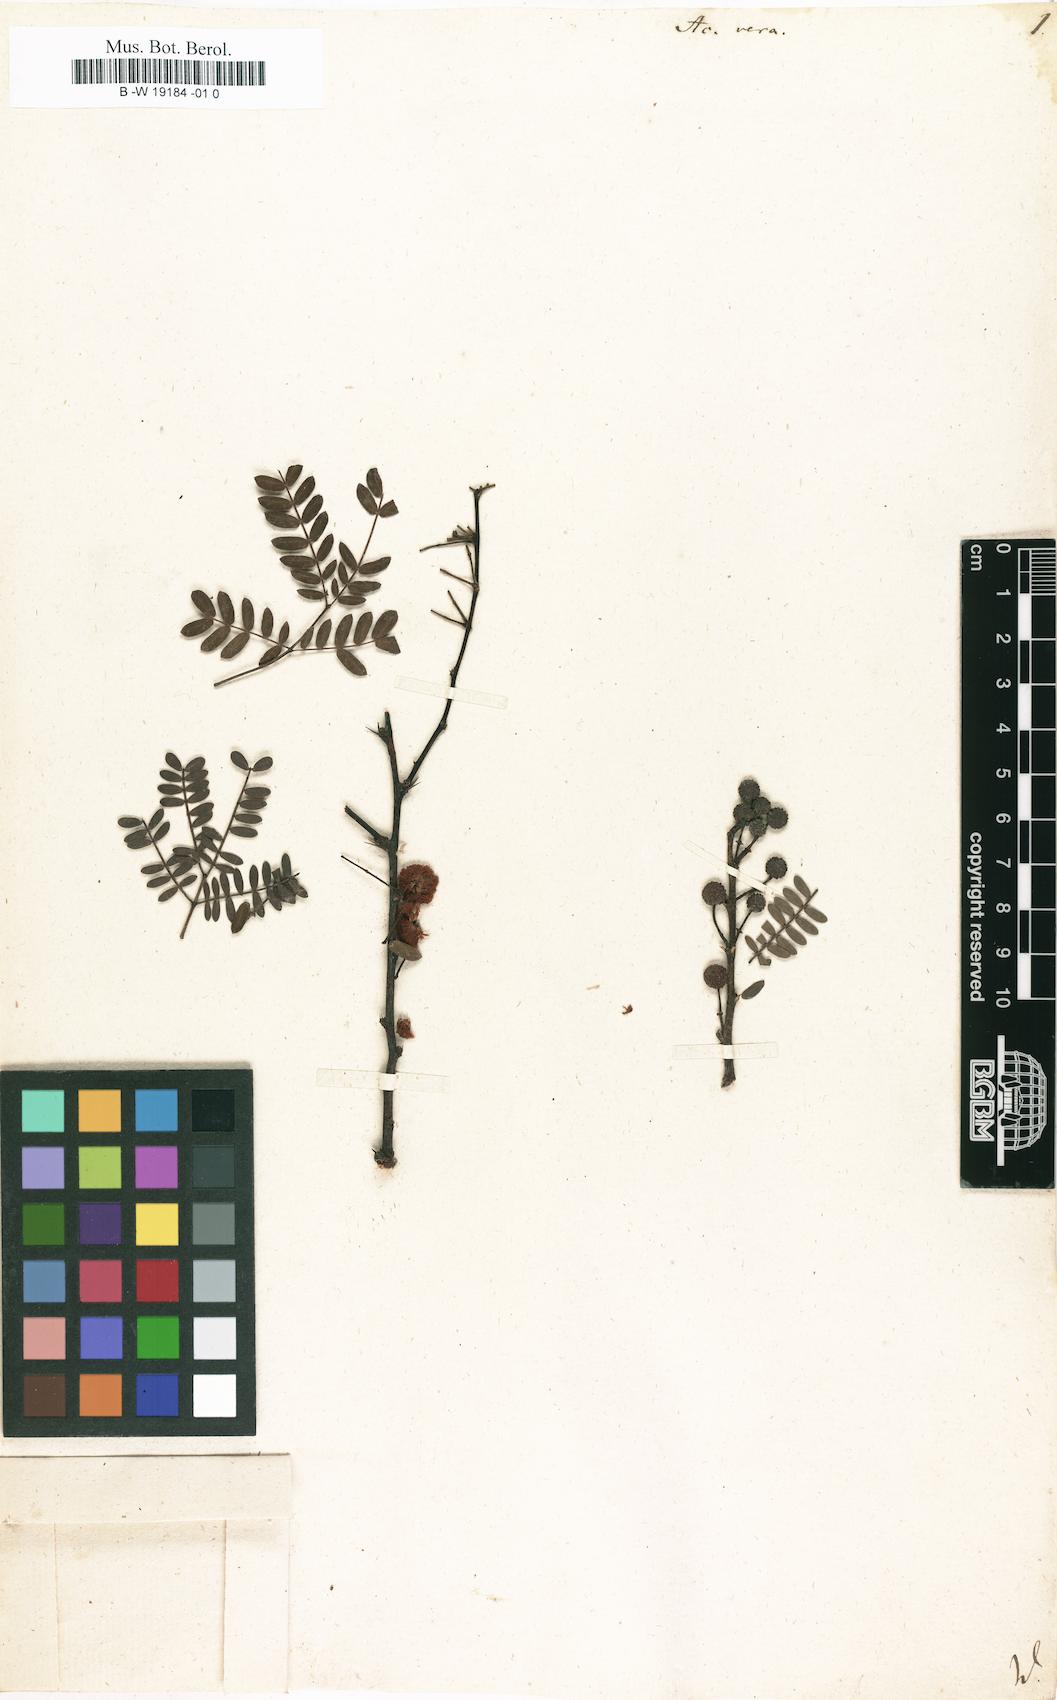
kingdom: Plantae
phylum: Tracheophyta
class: Magnoliopsida
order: Fabales
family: Fabaceae
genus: Vachellia
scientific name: Vachellia nilotica
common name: Arabic gumtree
